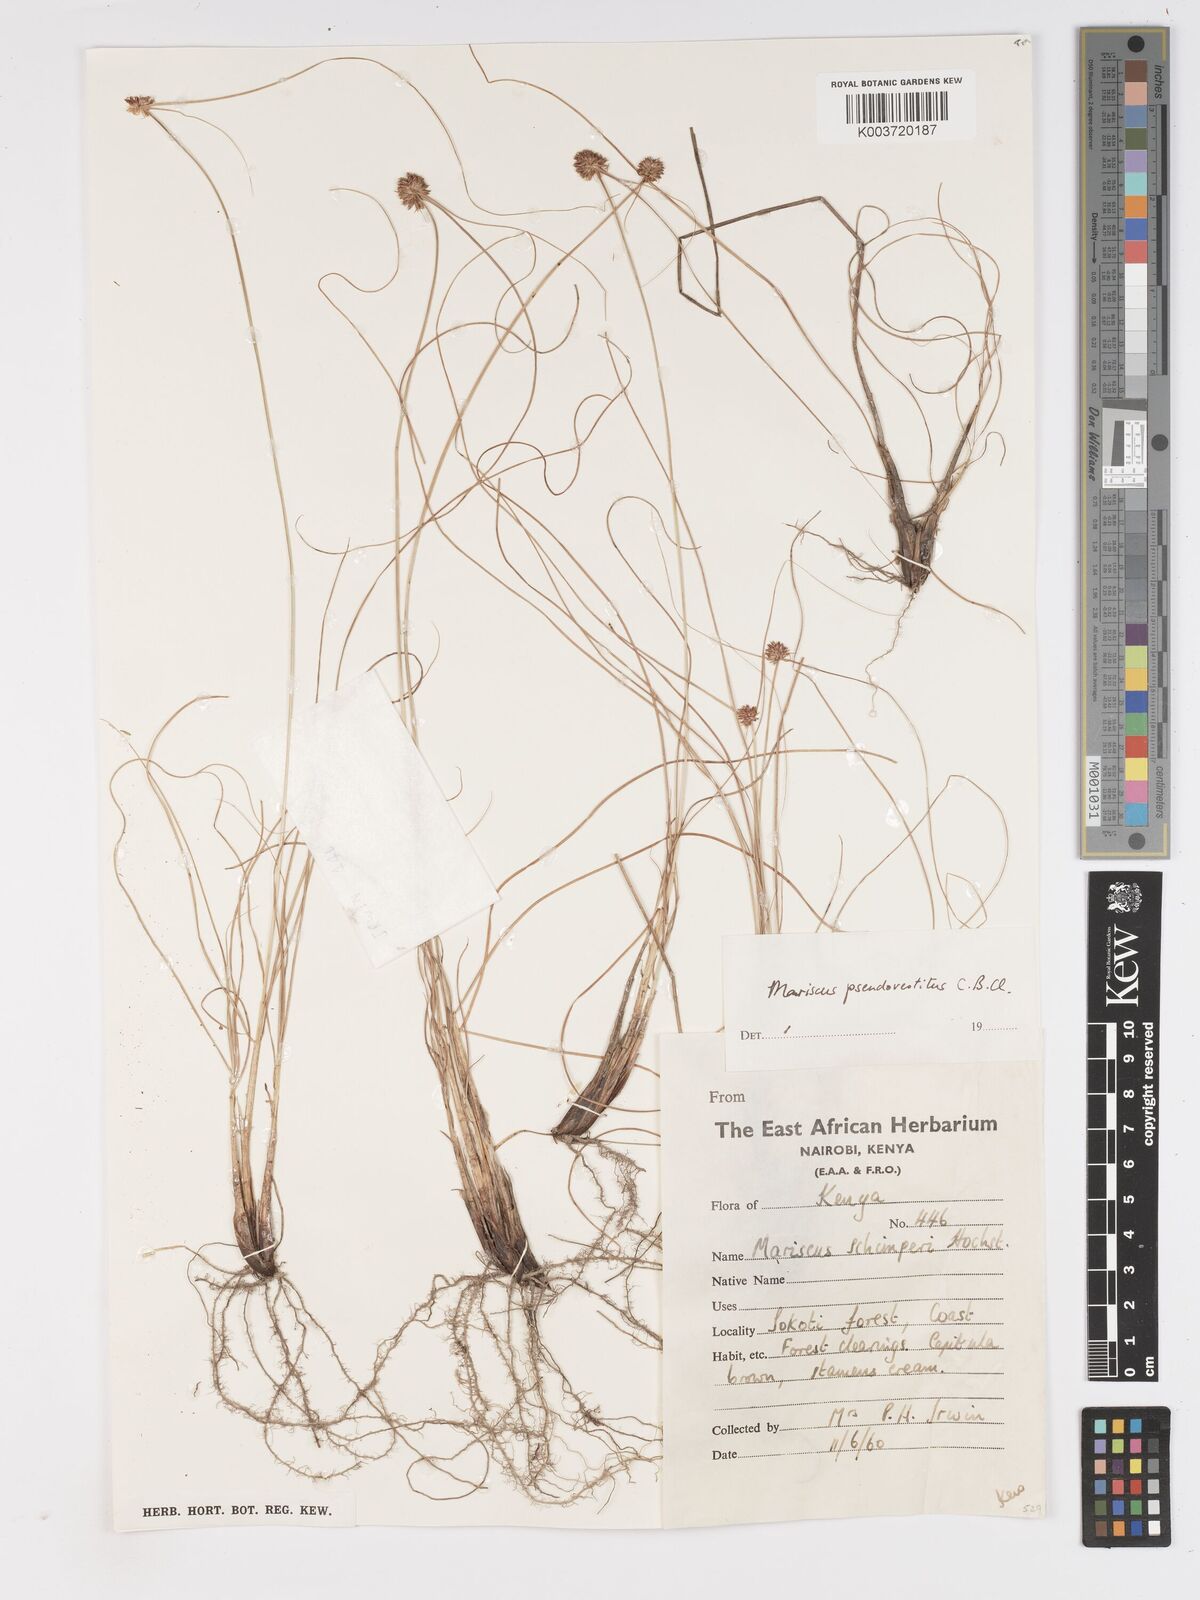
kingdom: Plantae
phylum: Tracheophyta
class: Liliopsida
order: Poales
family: Cyperaceae
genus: Cyperus
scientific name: Cyperus pseudovestitus
